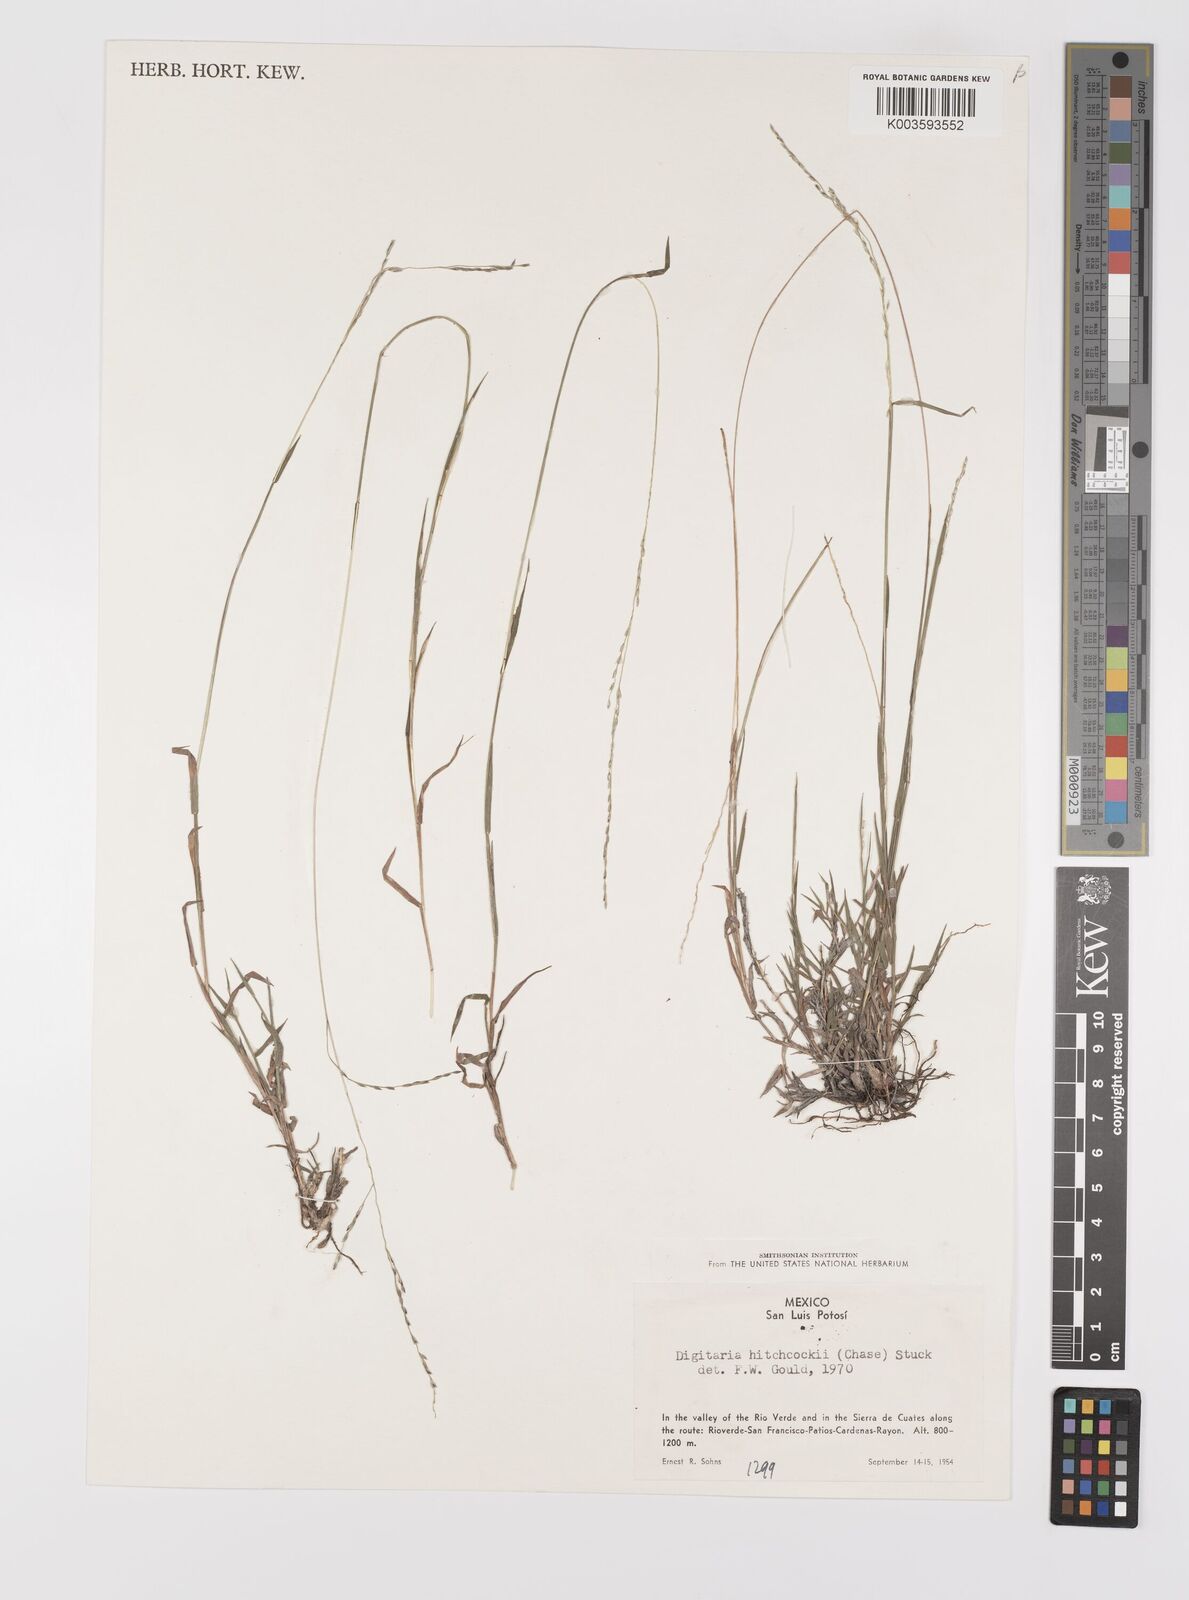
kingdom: Plantae
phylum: Tracheophyta
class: Liliopsida
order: Poales
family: Poaceae
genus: Digitaria
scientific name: Digitaria hitchcockii
